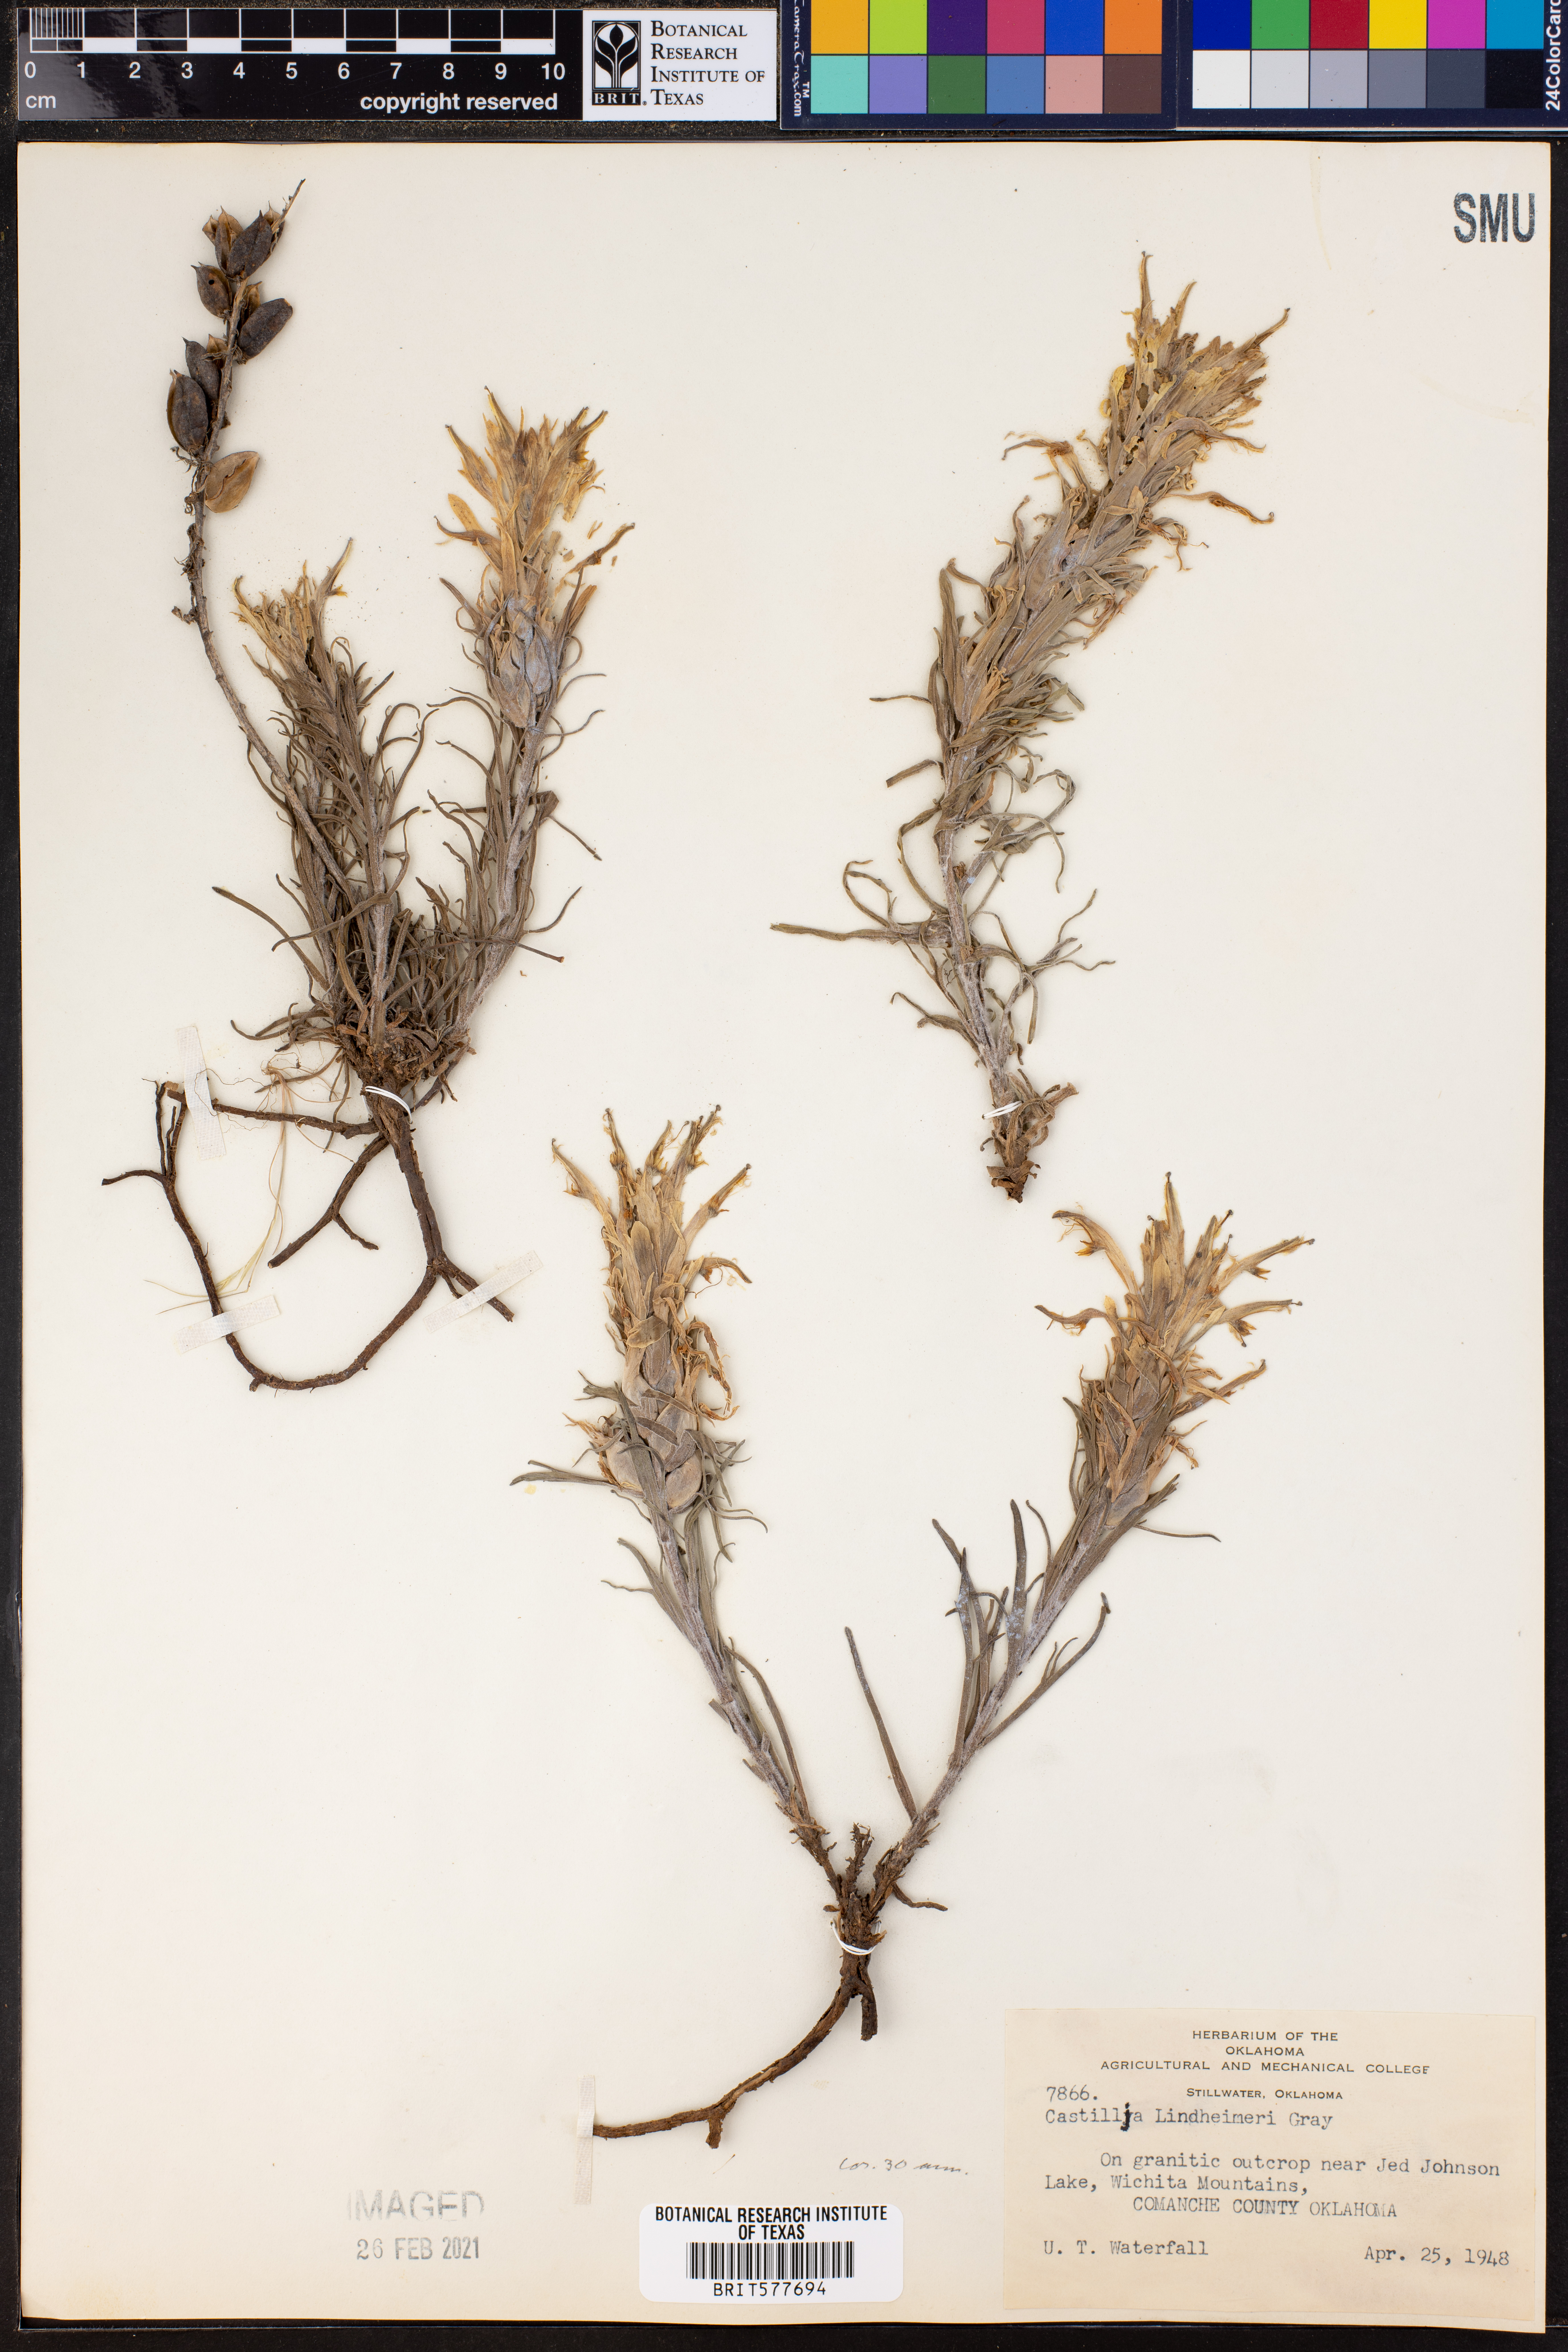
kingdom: Plantae
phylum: Tracheophyta
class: Magnoliopsida
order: Lamiales
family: Orobanchaceae
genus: Castilleja
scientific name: Castilleja lindheimeri
